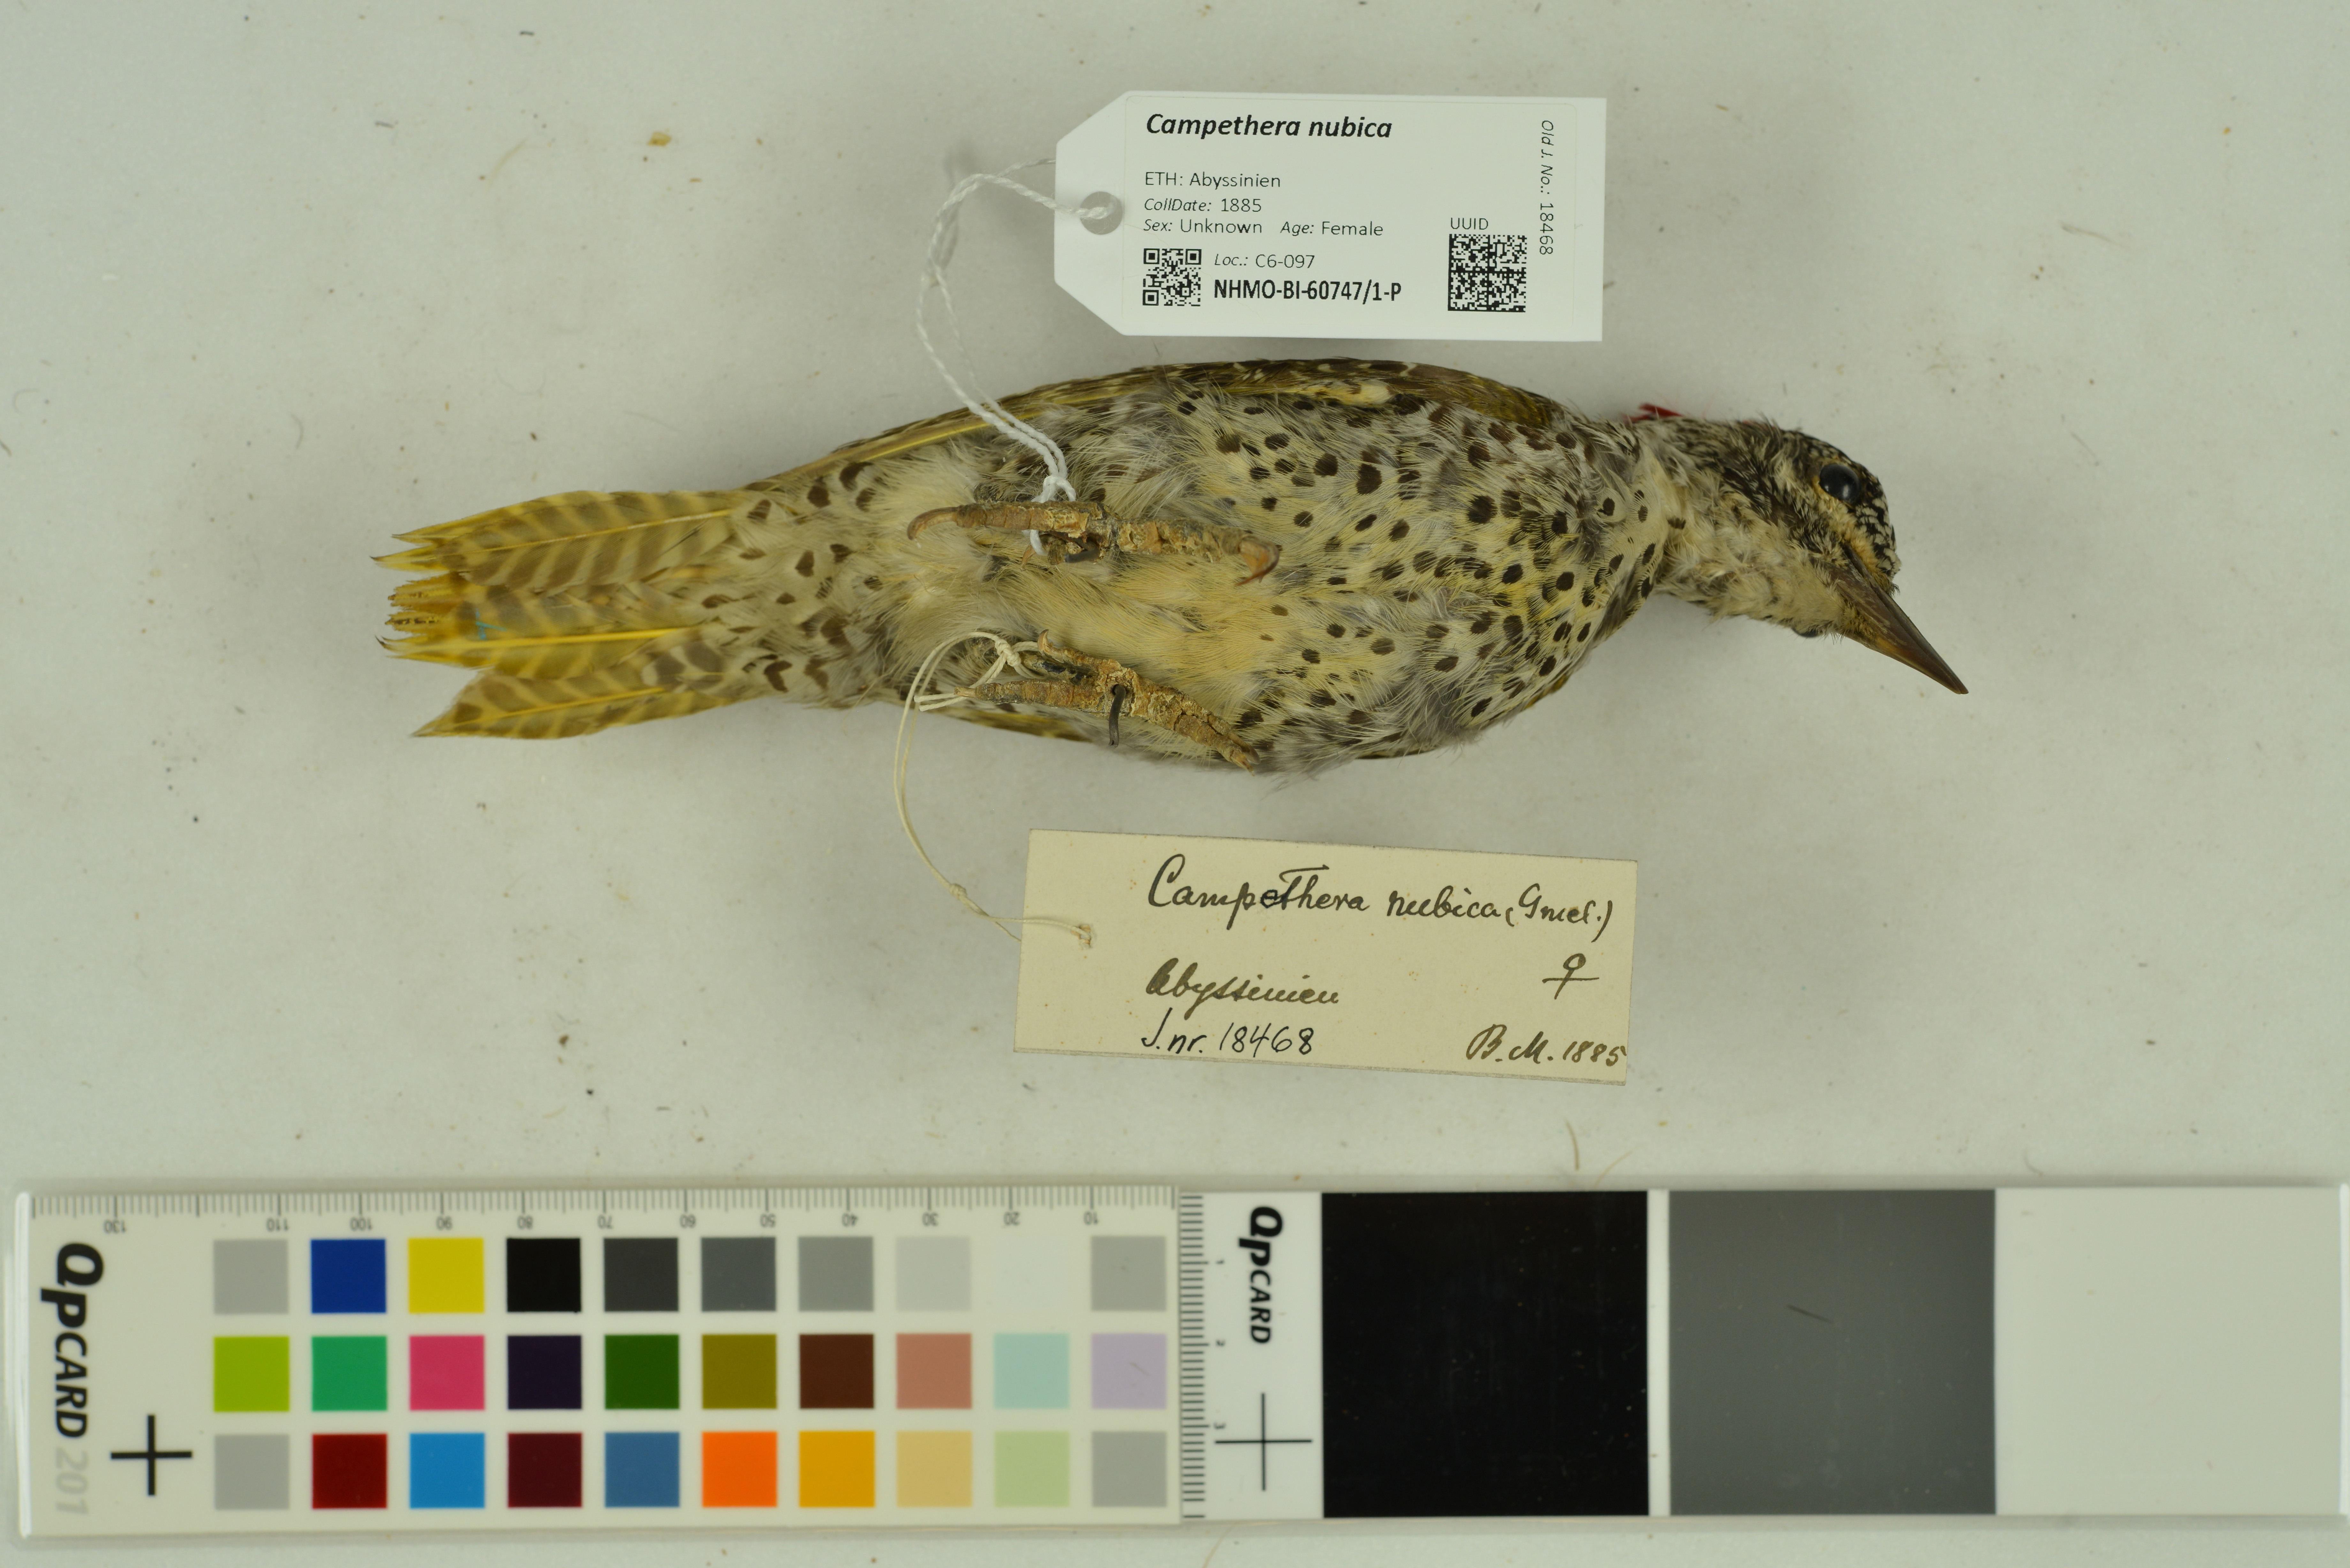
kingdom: Animalia
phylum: Chordata
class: Aves
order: Piciformes
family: Picidae
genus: Campethera
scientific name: Campethera nubica
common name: Nubian woodpecker
